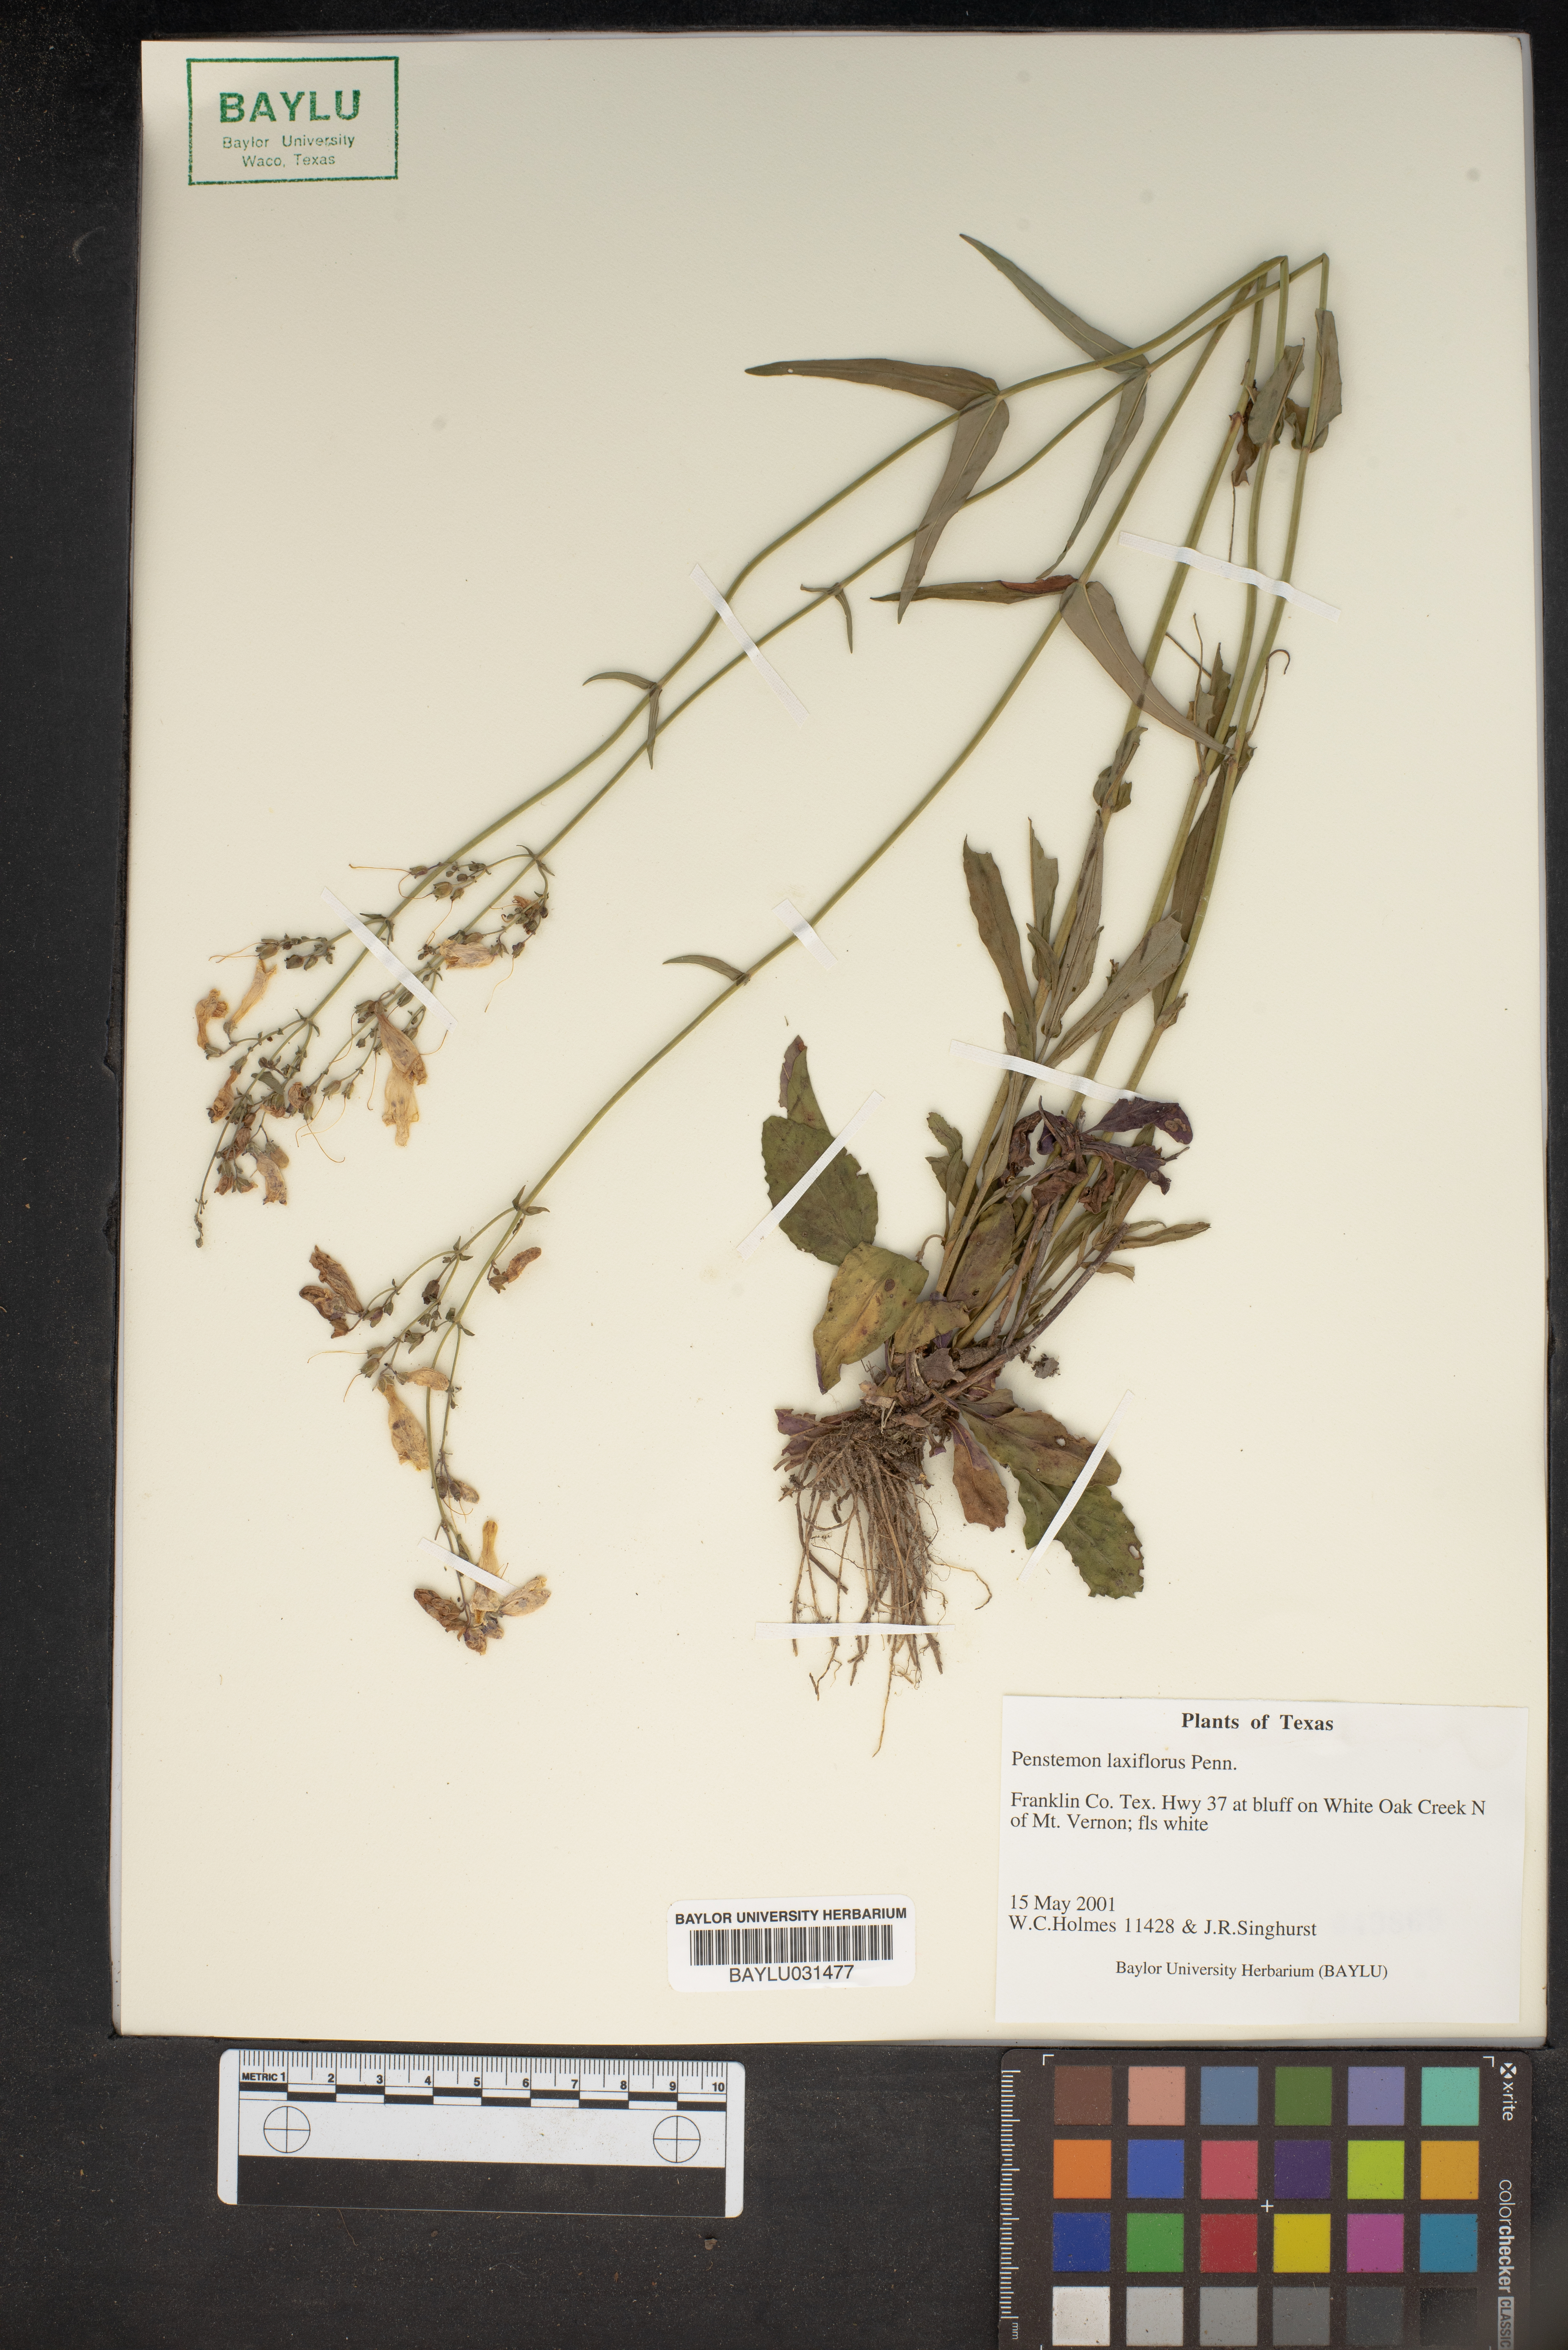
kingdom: Plantae
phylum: Tracheophyta
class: Magnoliopsida
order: Lamiales
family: Plantaginaceae
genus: Penstemon
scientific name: Penstemon laxiflorus
